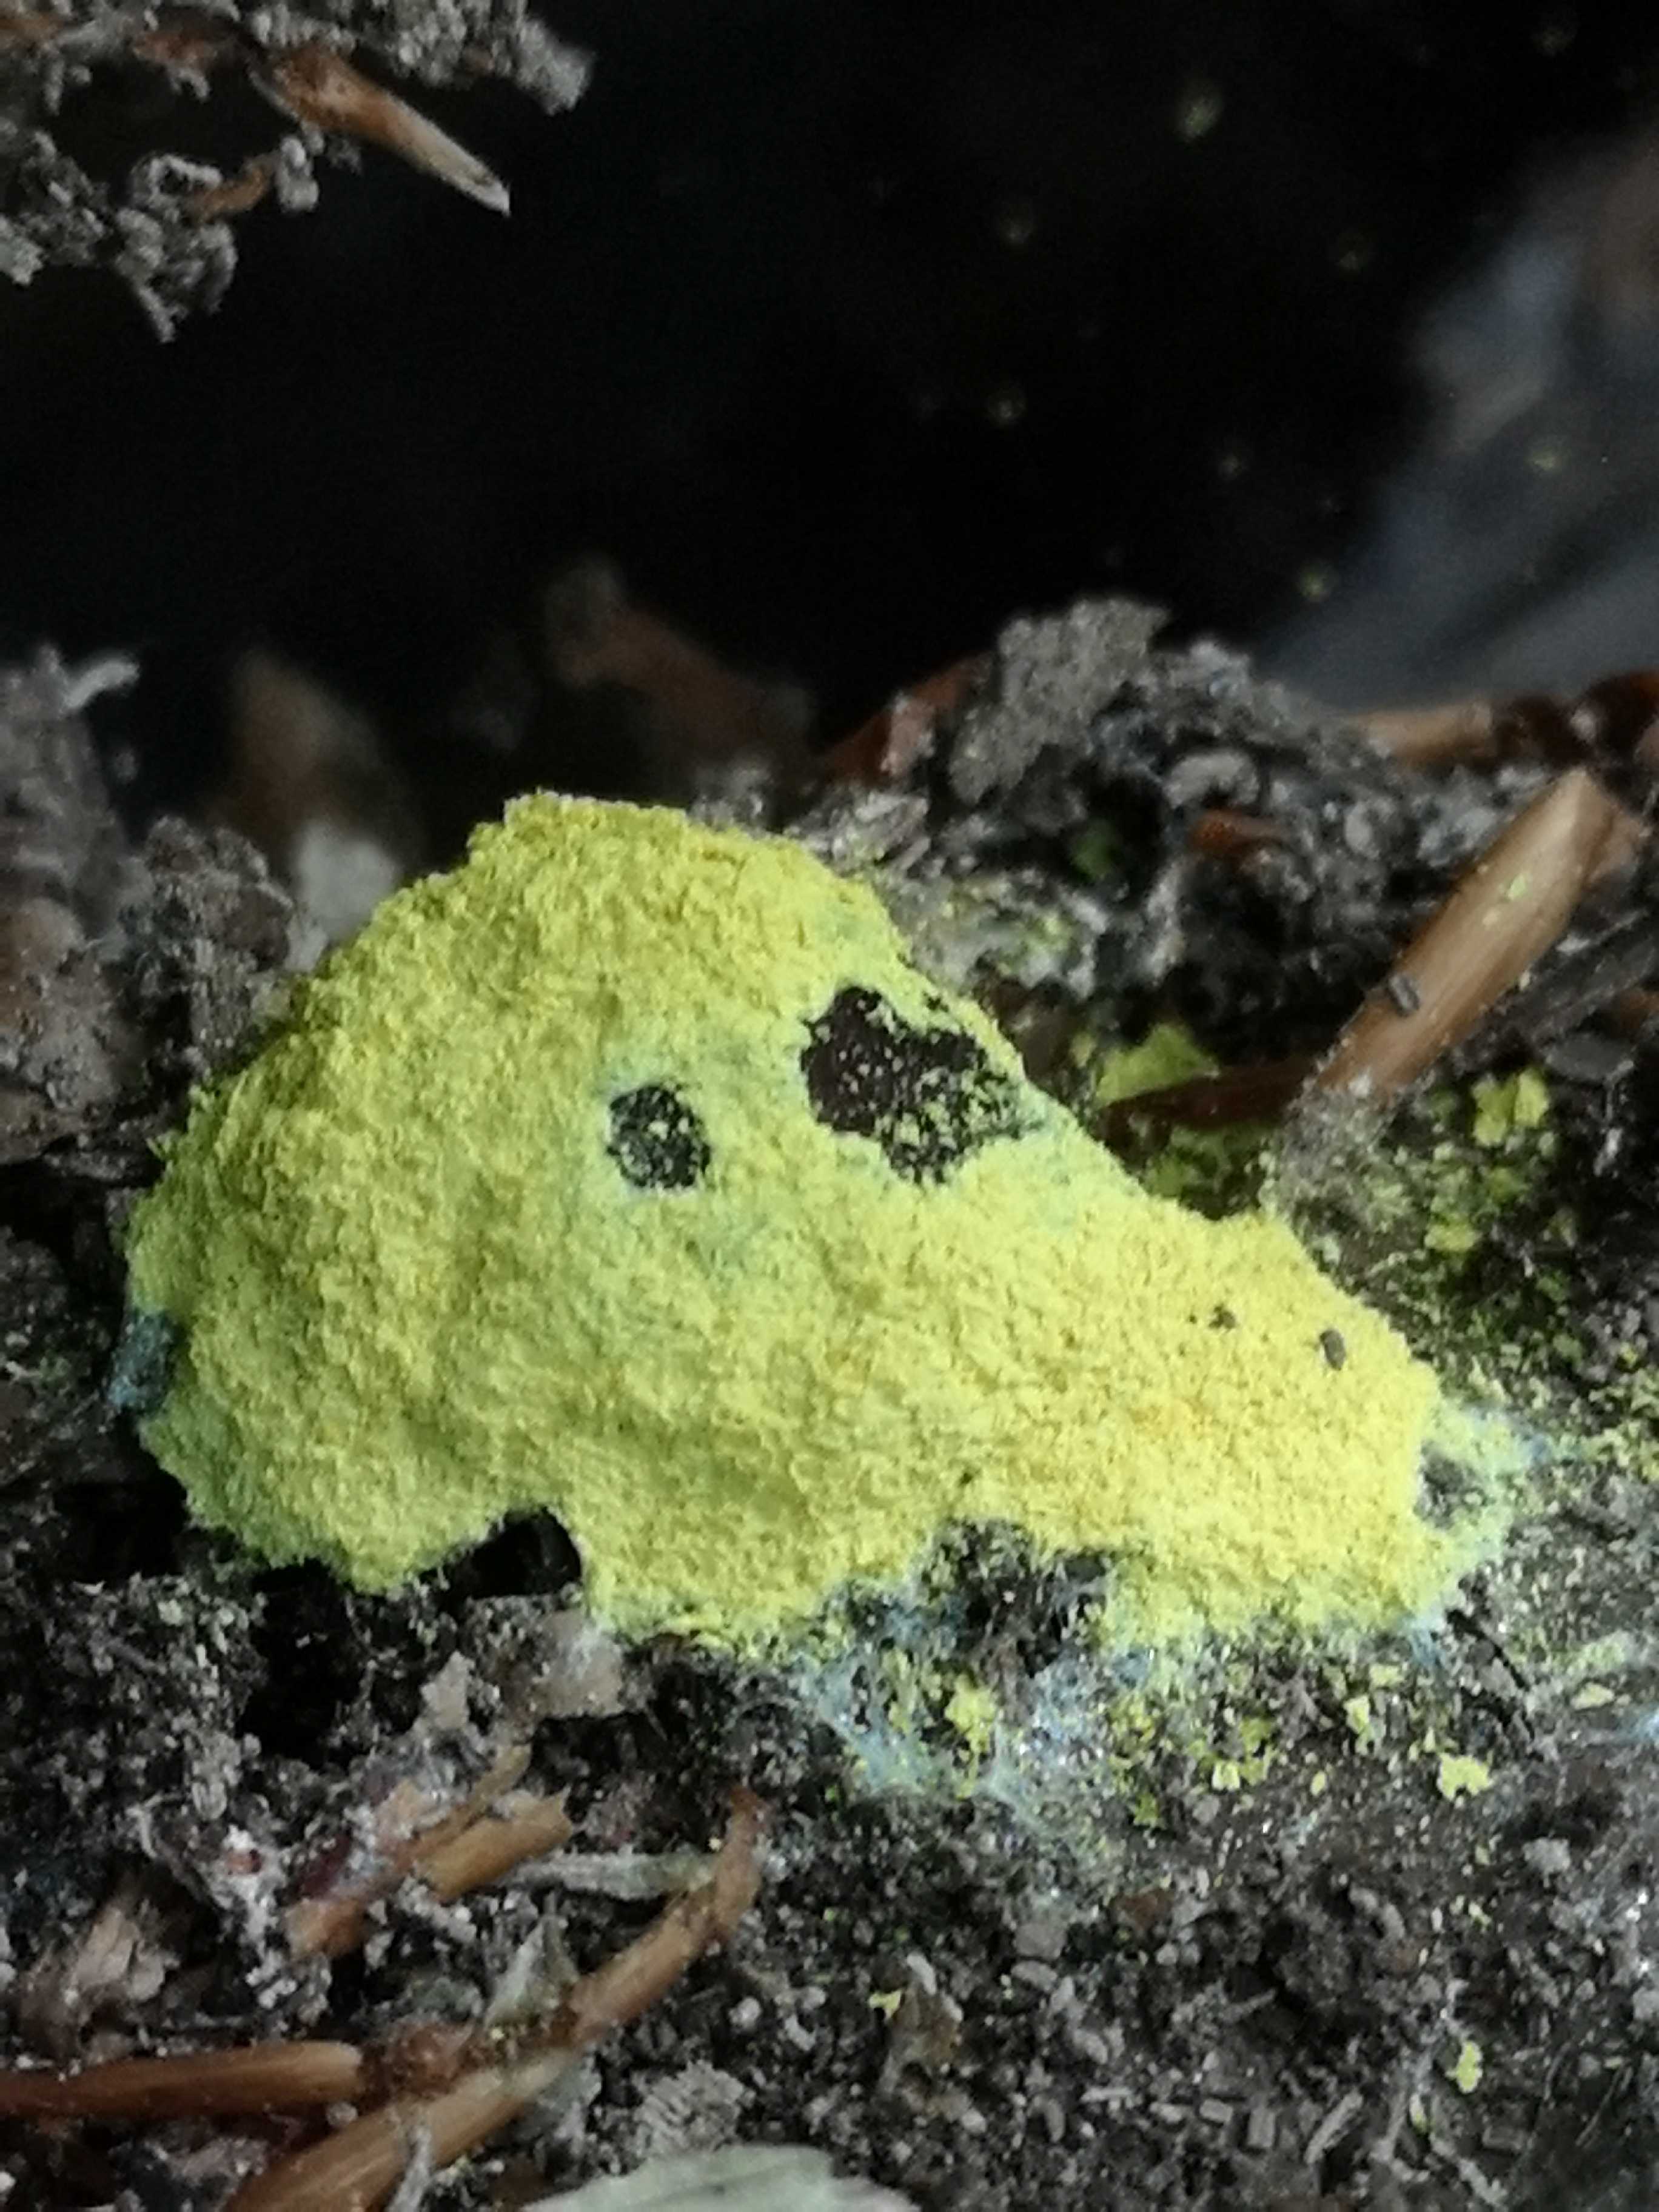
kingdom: Protozoa
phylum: Mycetozoa
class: Myxomycetes
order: Physarales
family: Physaraceae
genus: Fuligo
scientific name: Fuligo septica
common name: gul troldsmør
